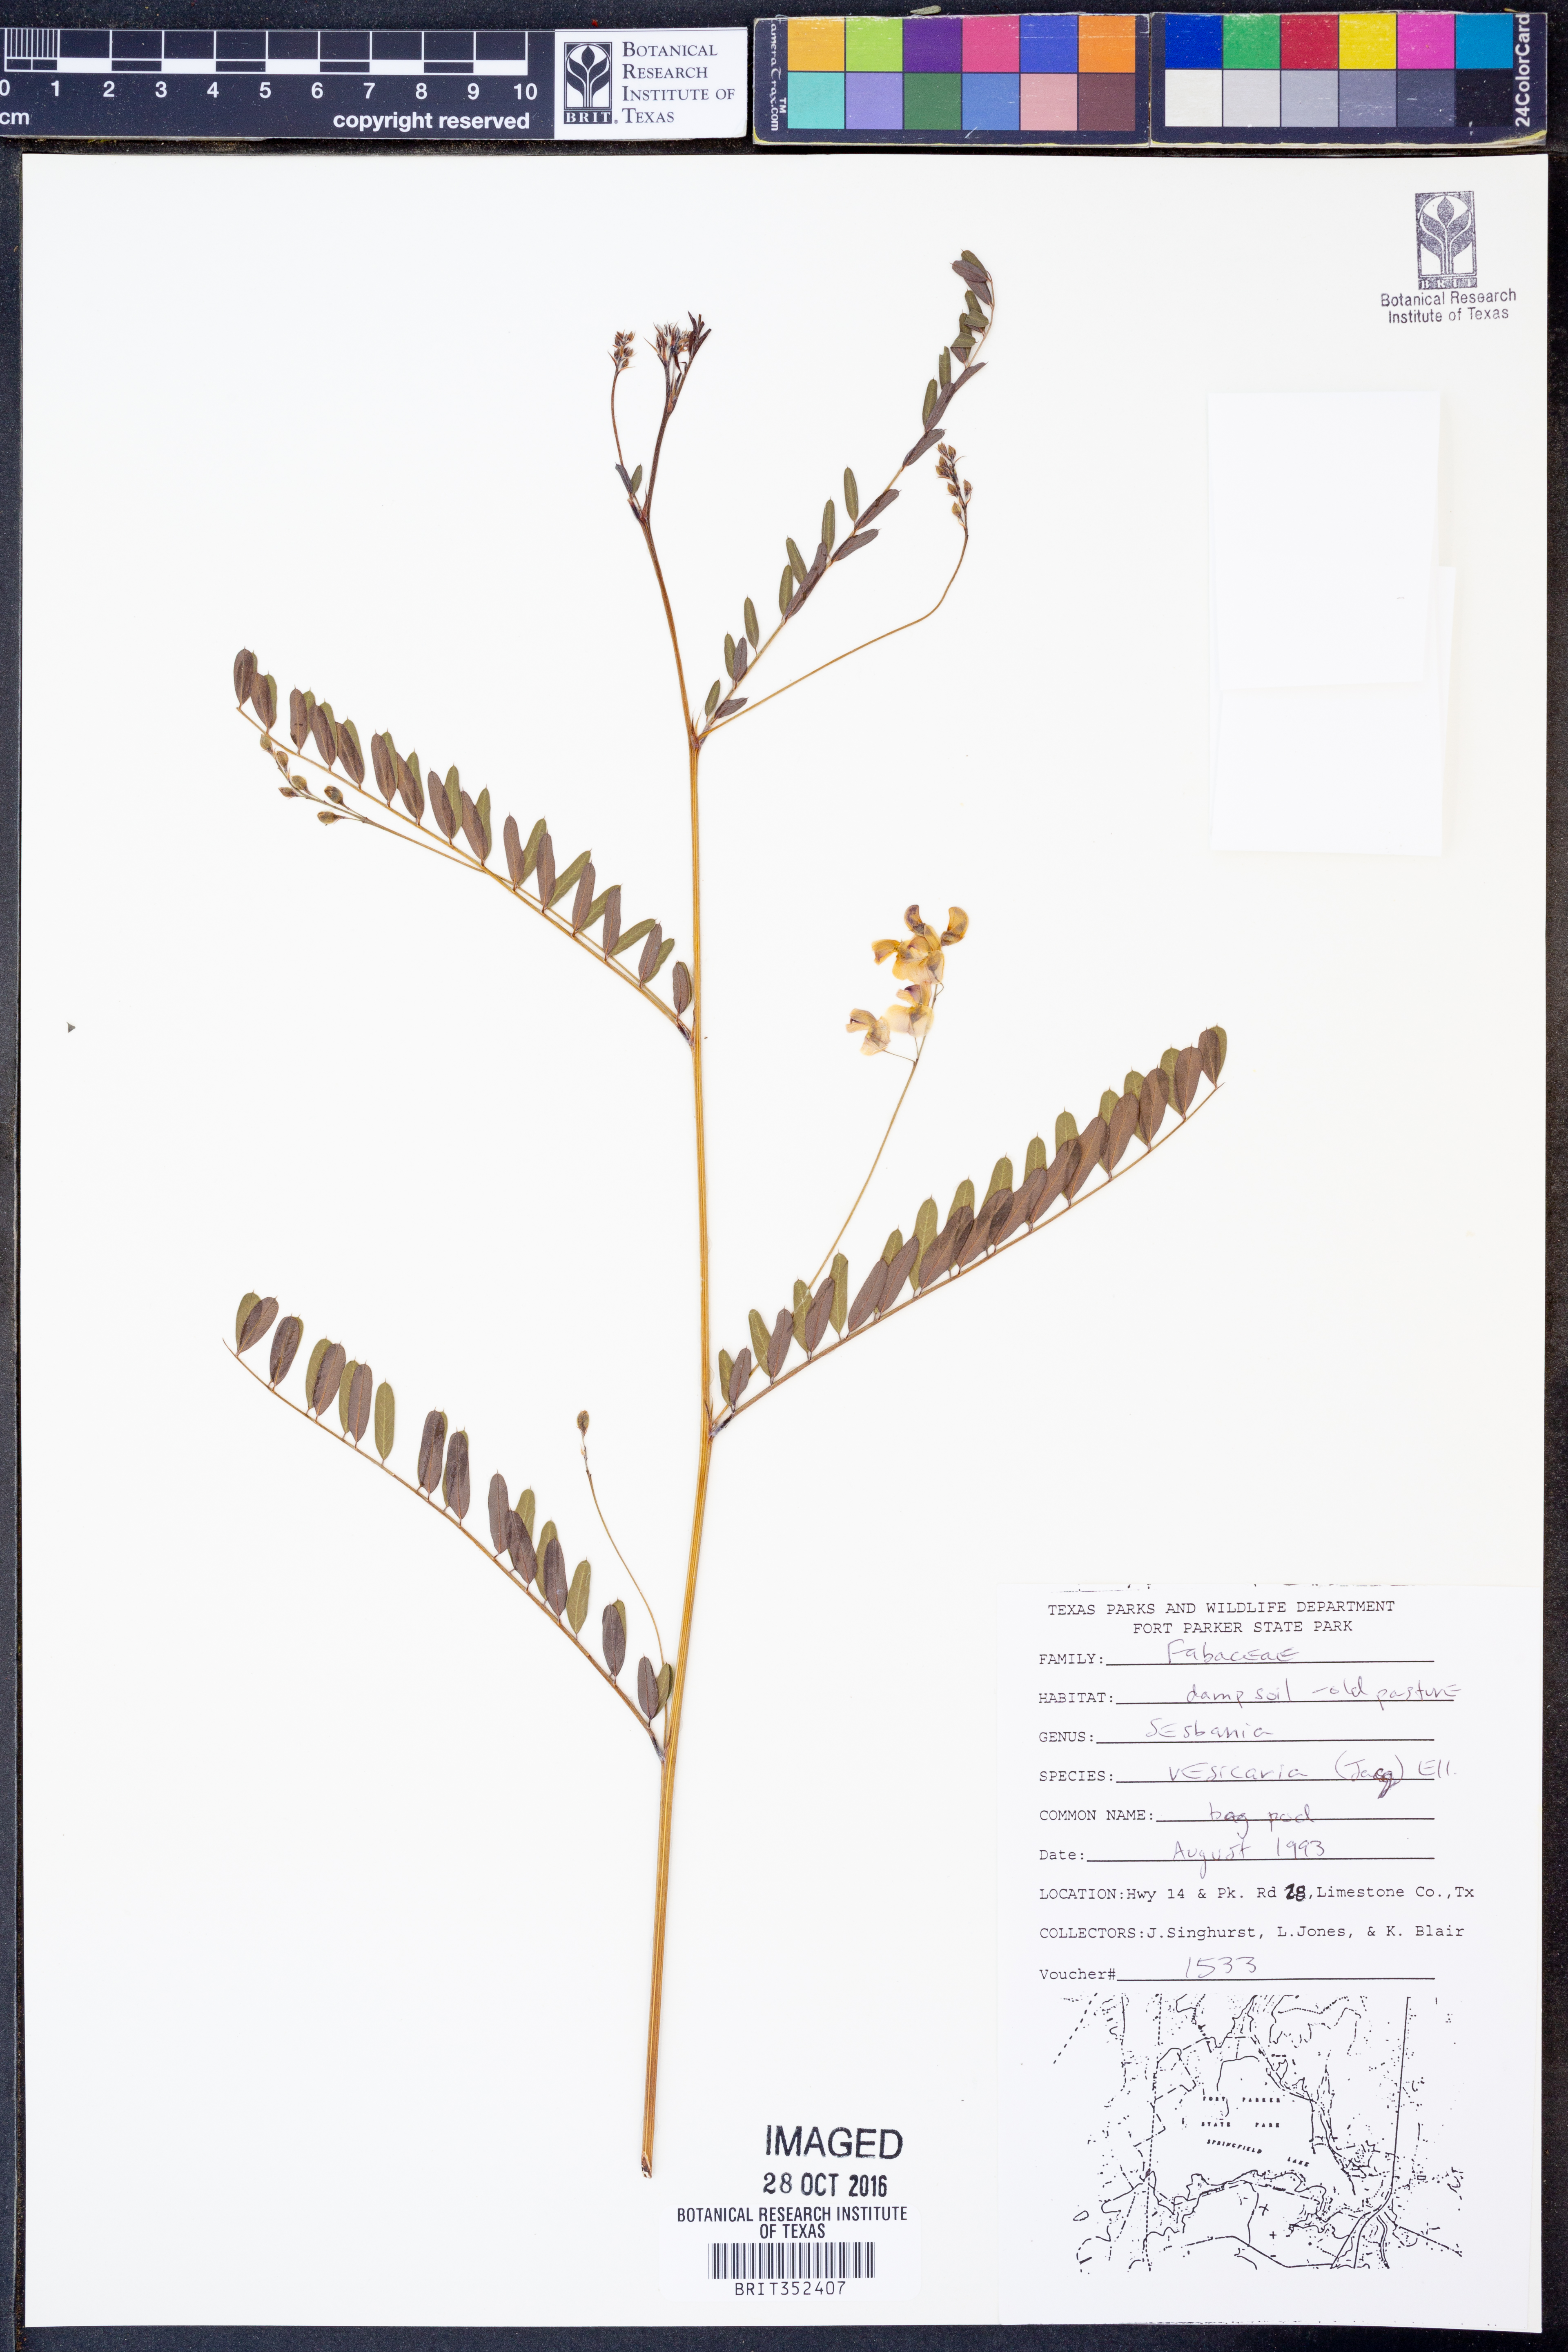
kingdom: Plantae
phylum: Tracheophyta
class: Magnoliopsida
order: Fabales
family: Fabaceae
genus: Sesbania
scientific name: Sesbania vesicaria
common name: Bagpod
